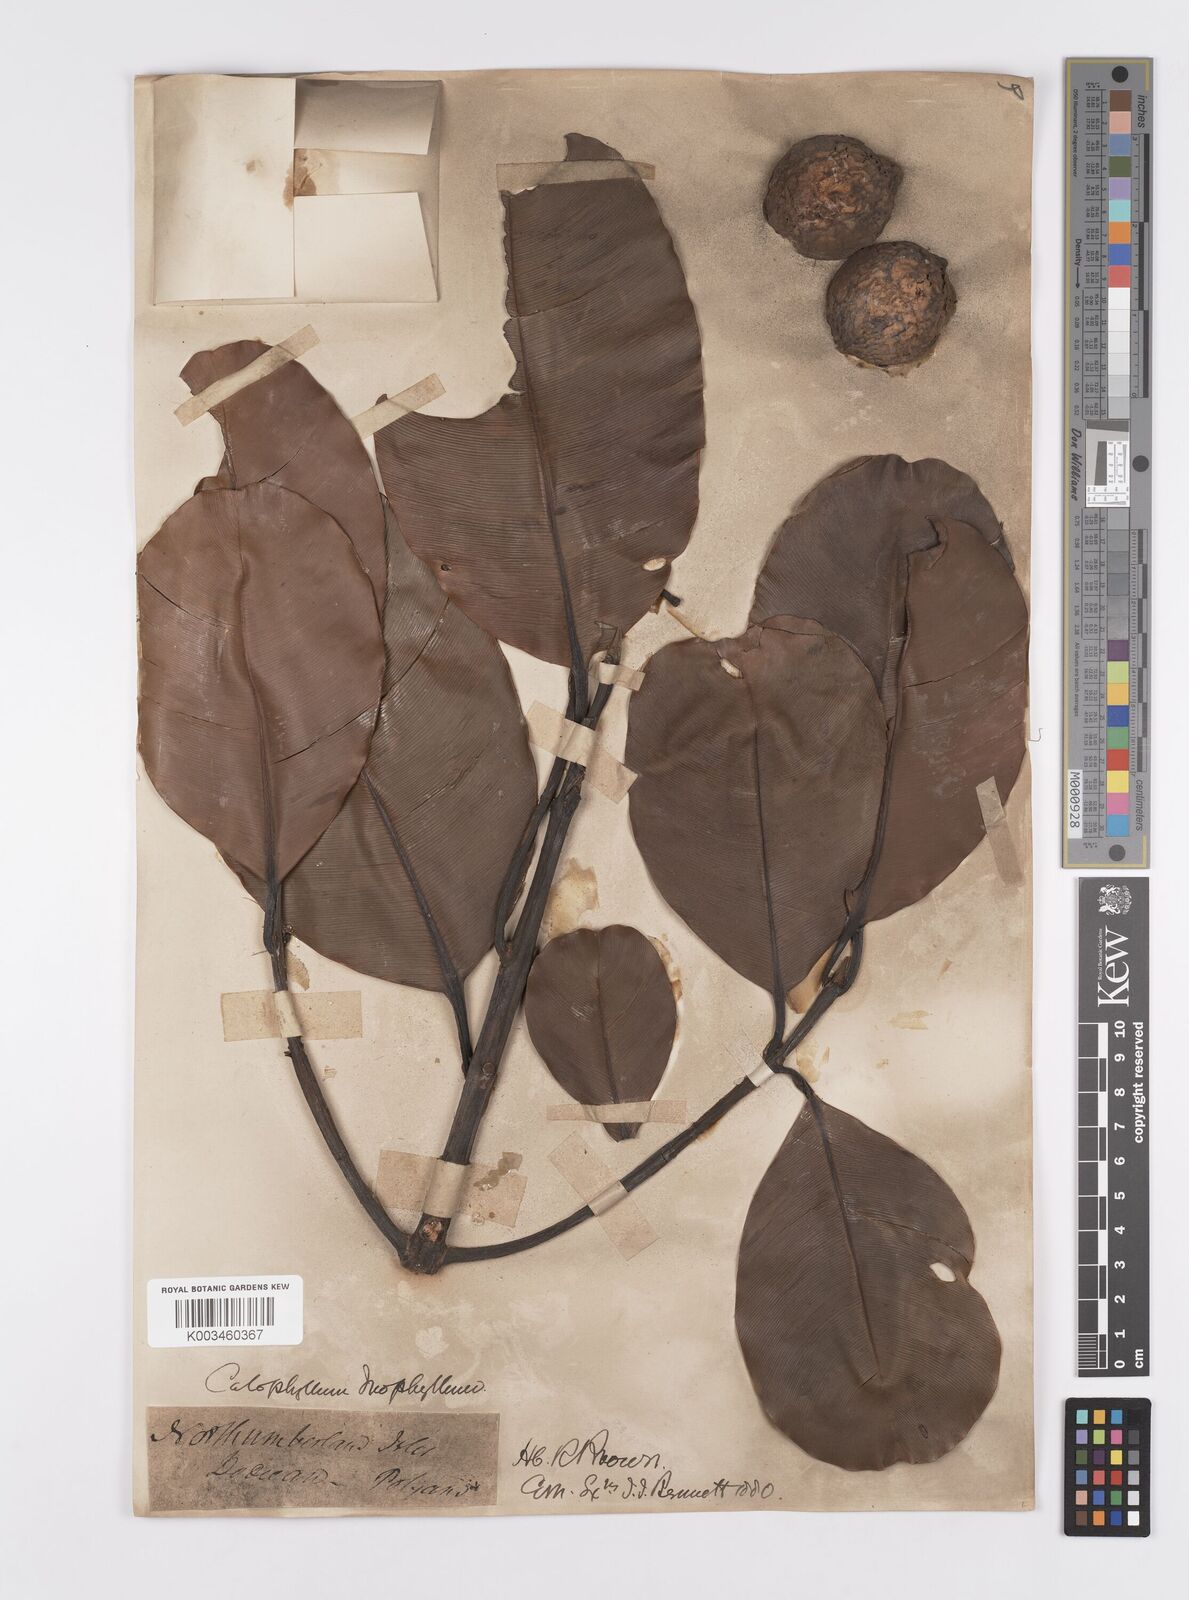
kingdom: Plantae
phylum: Tracheophyta
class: Magnoliopsida
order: Malpighiales
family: Calophyllaceae
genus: Calophyllum
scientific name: Calophyllum inophyllum
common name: Alexandrian laurel
